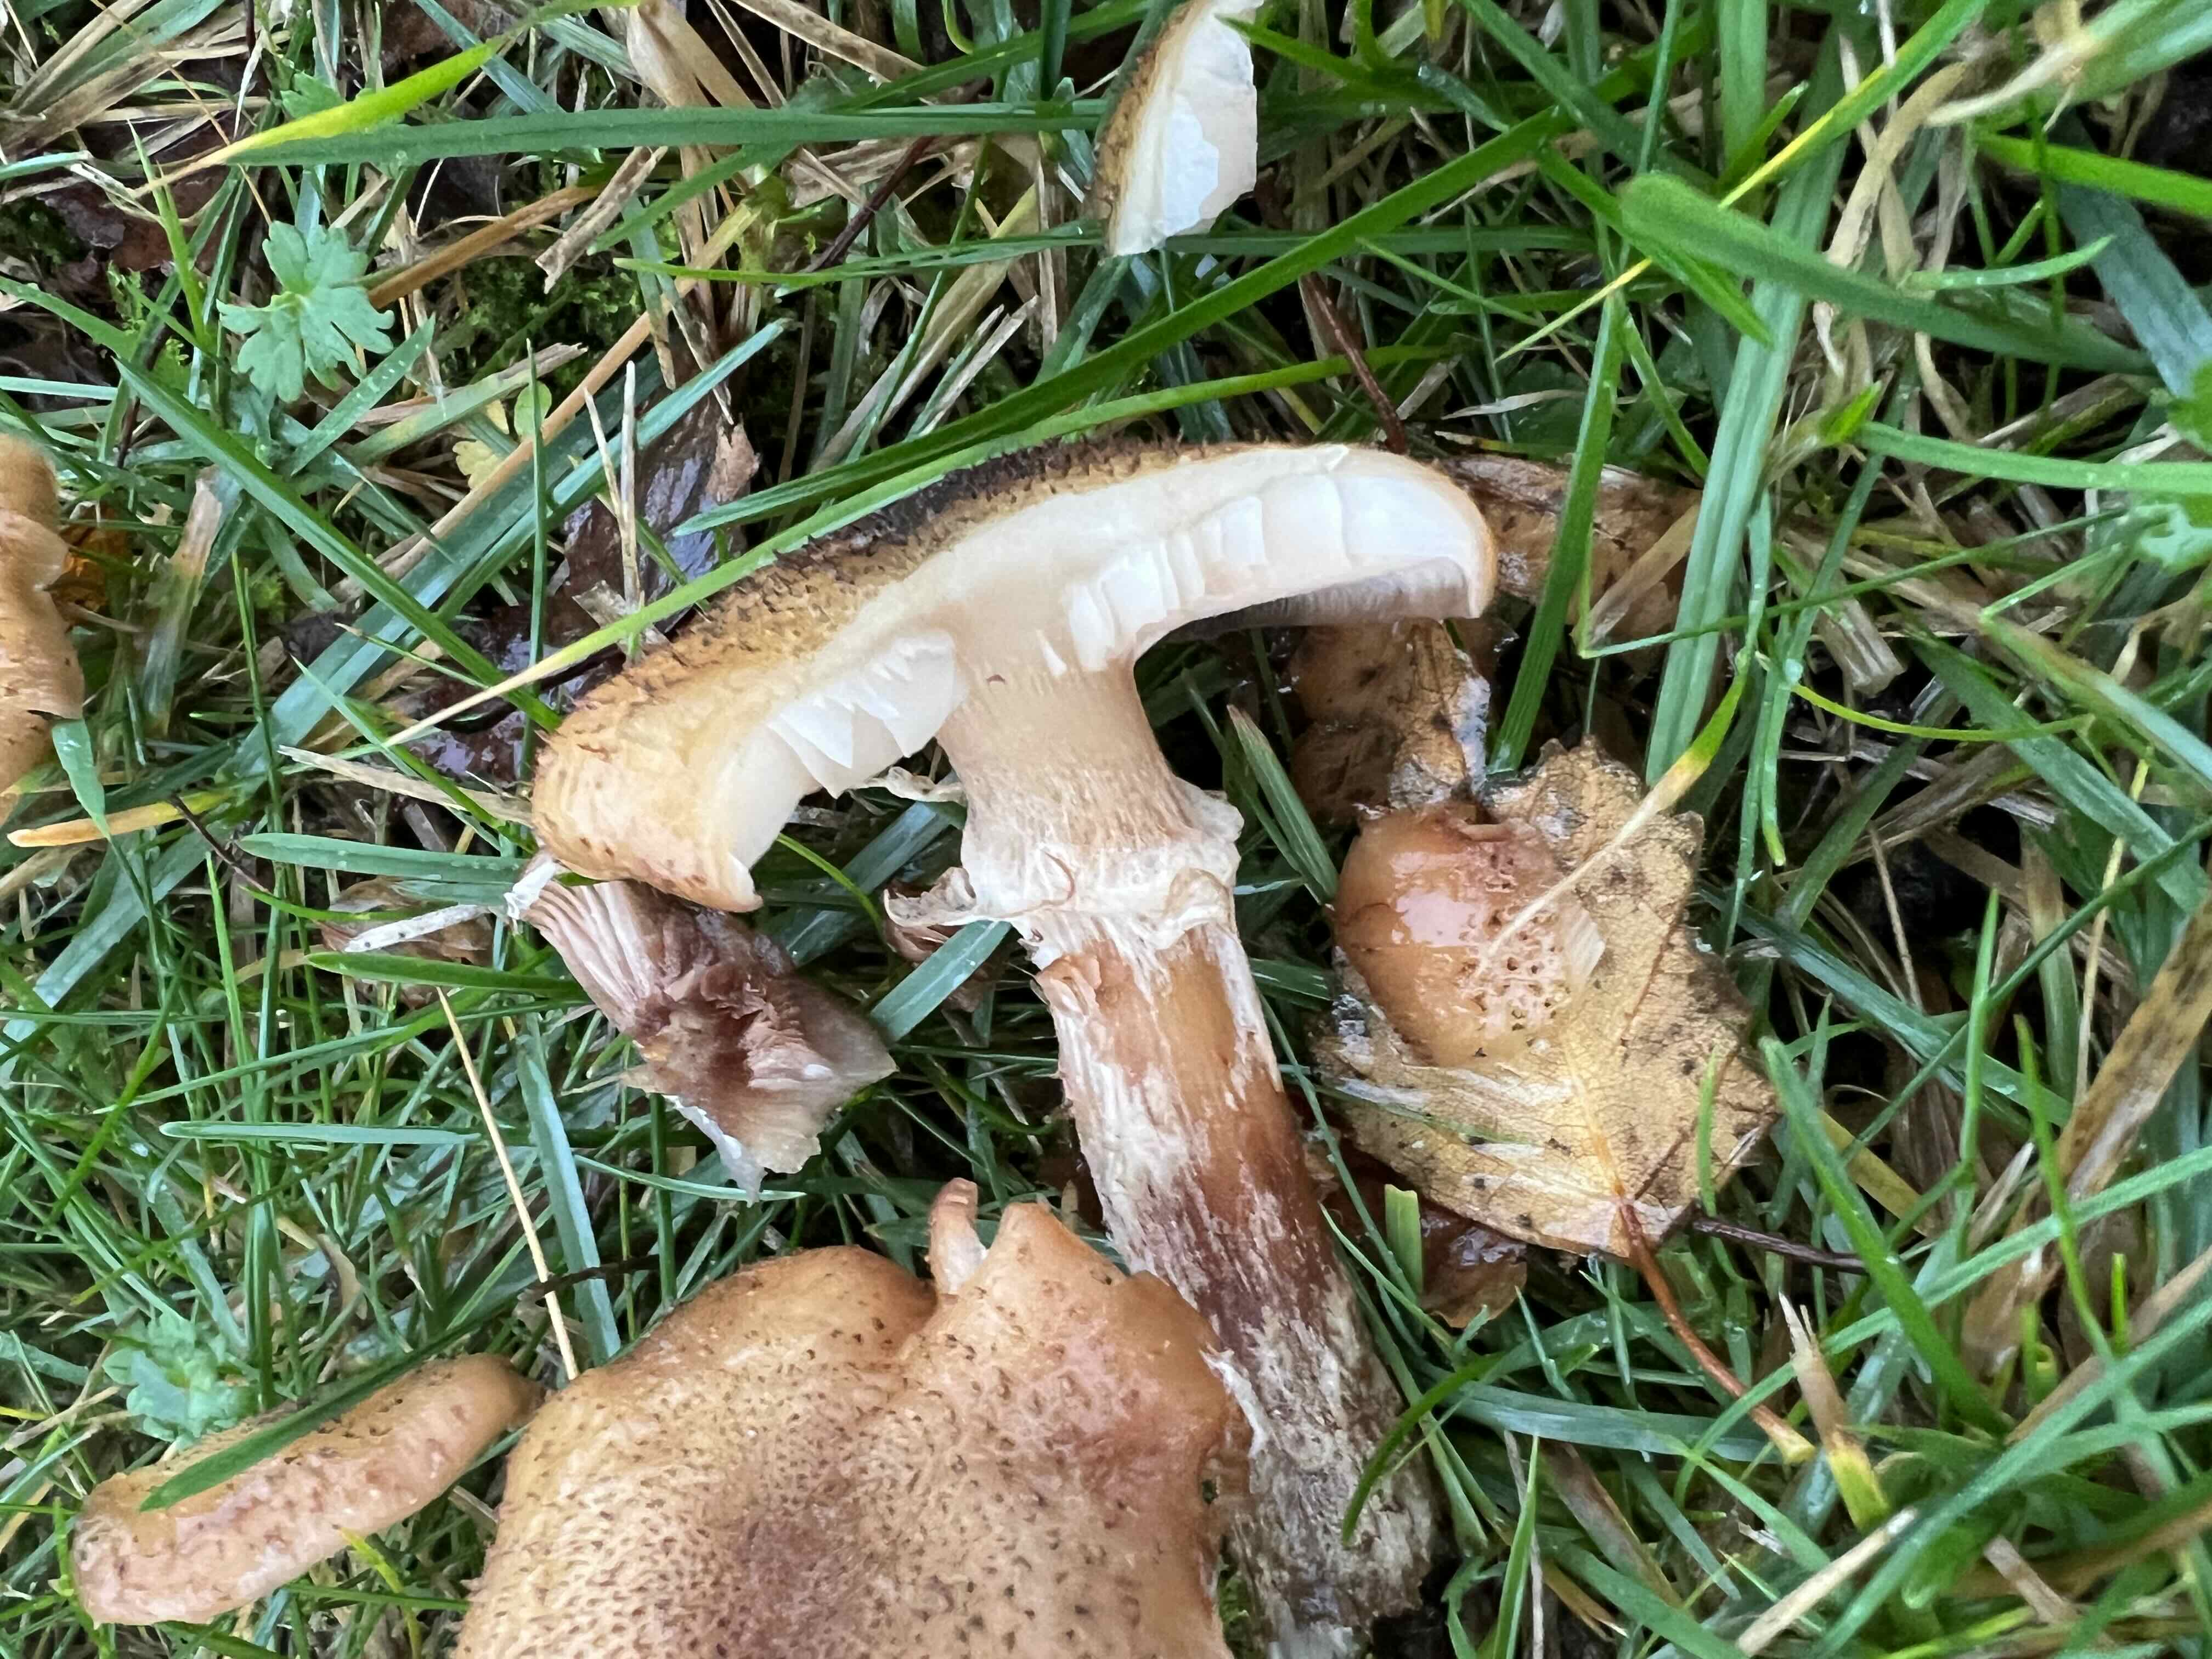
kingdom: Fungi
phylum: Basidiomycota
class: Agaricomycetes
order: Agaricales
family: Physalacriaceae
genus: Armillaria
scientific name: Armillaria
